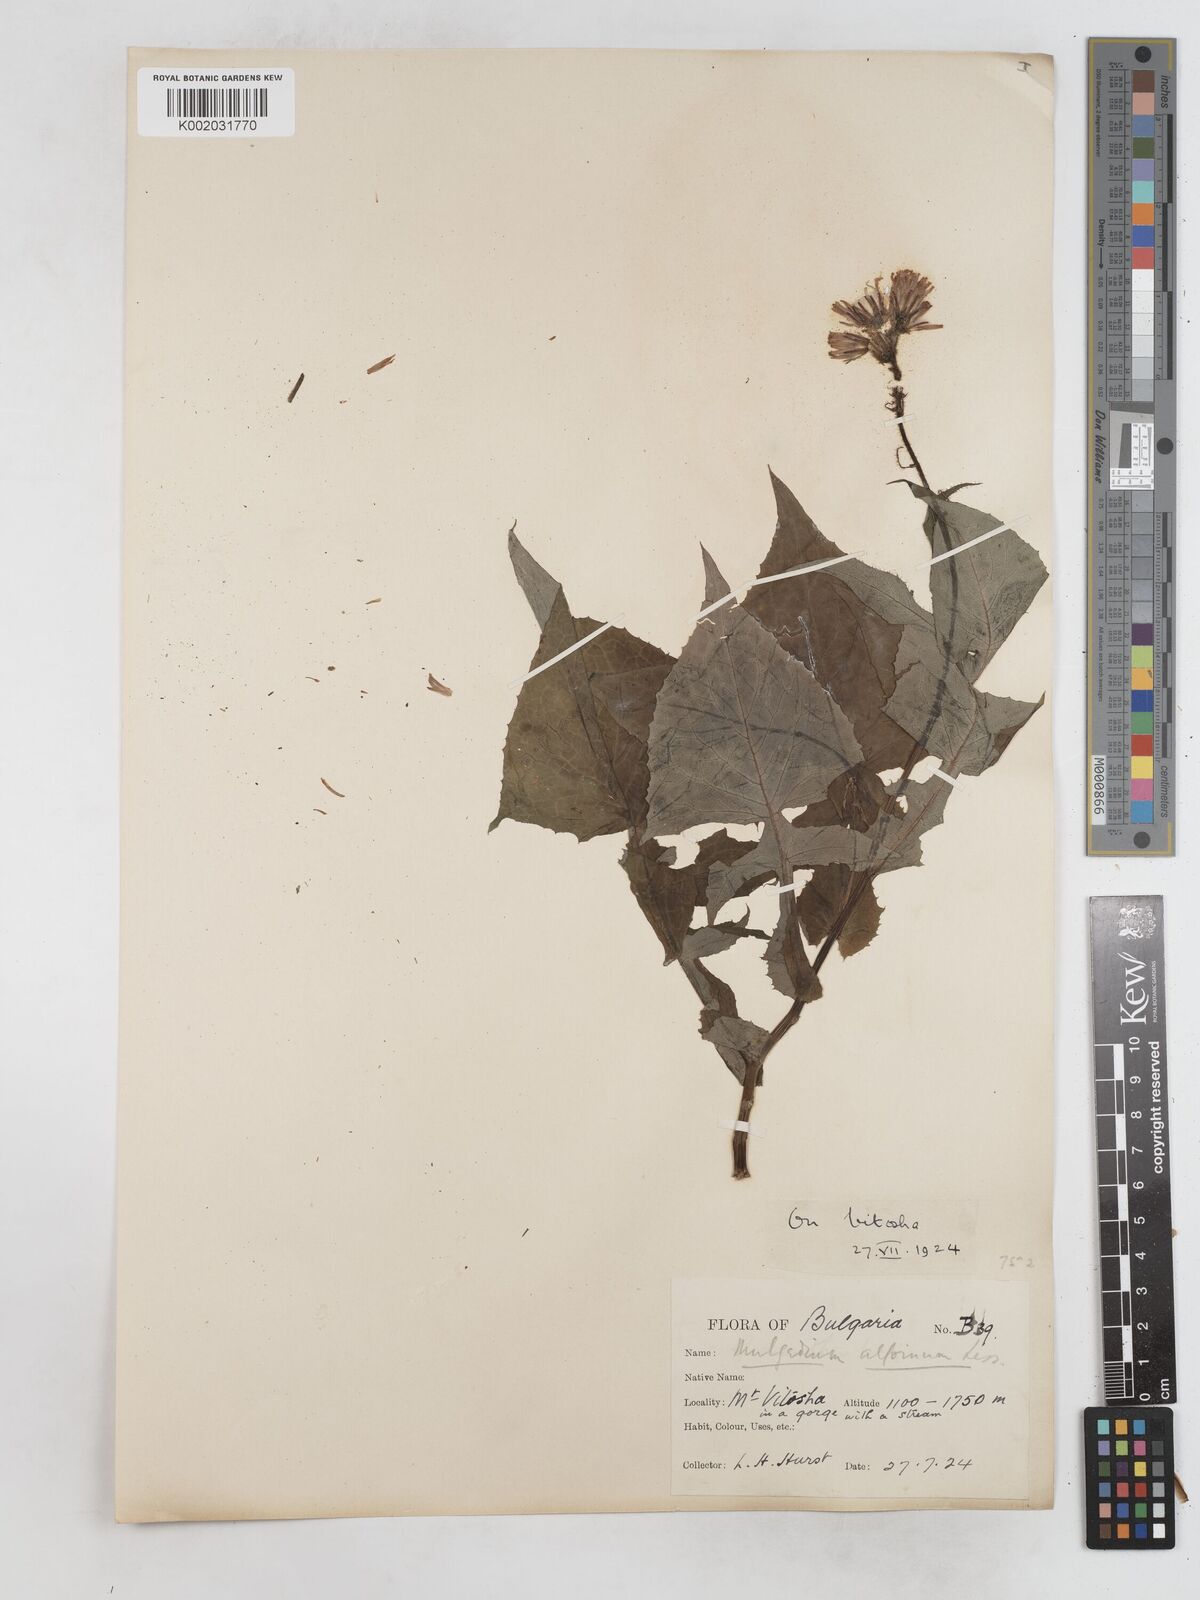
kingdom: Plantae
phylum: Tracheophyta
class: Magnoliopsida
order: Asterales
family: Asteraceae
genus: Cicerbita
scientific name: Cicerbita alpina
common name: Alpine blue-sow-thistle
